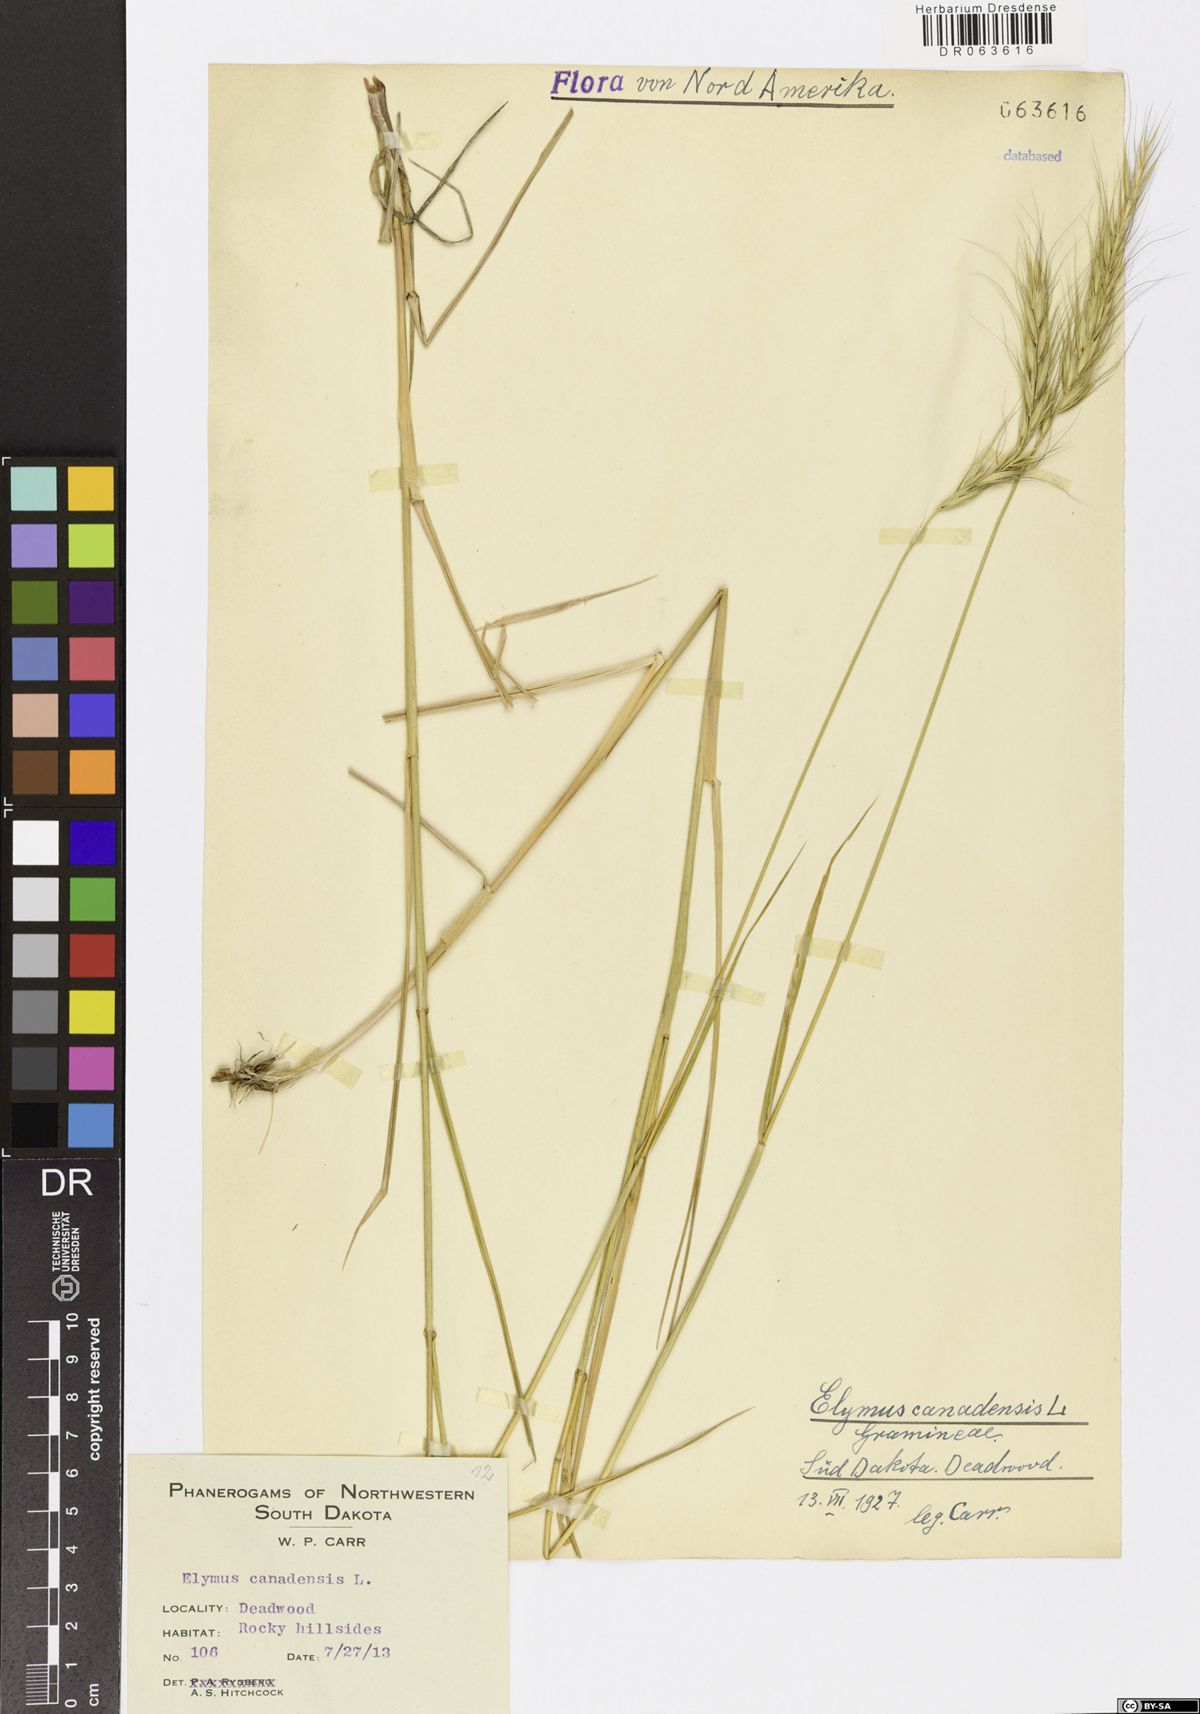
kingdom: Plantae
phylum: Tracheophyta
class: Liliopsida
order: Poales
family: Poaceae
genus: Elymus
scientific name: Elymus canadensis
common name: Canada wild rye
